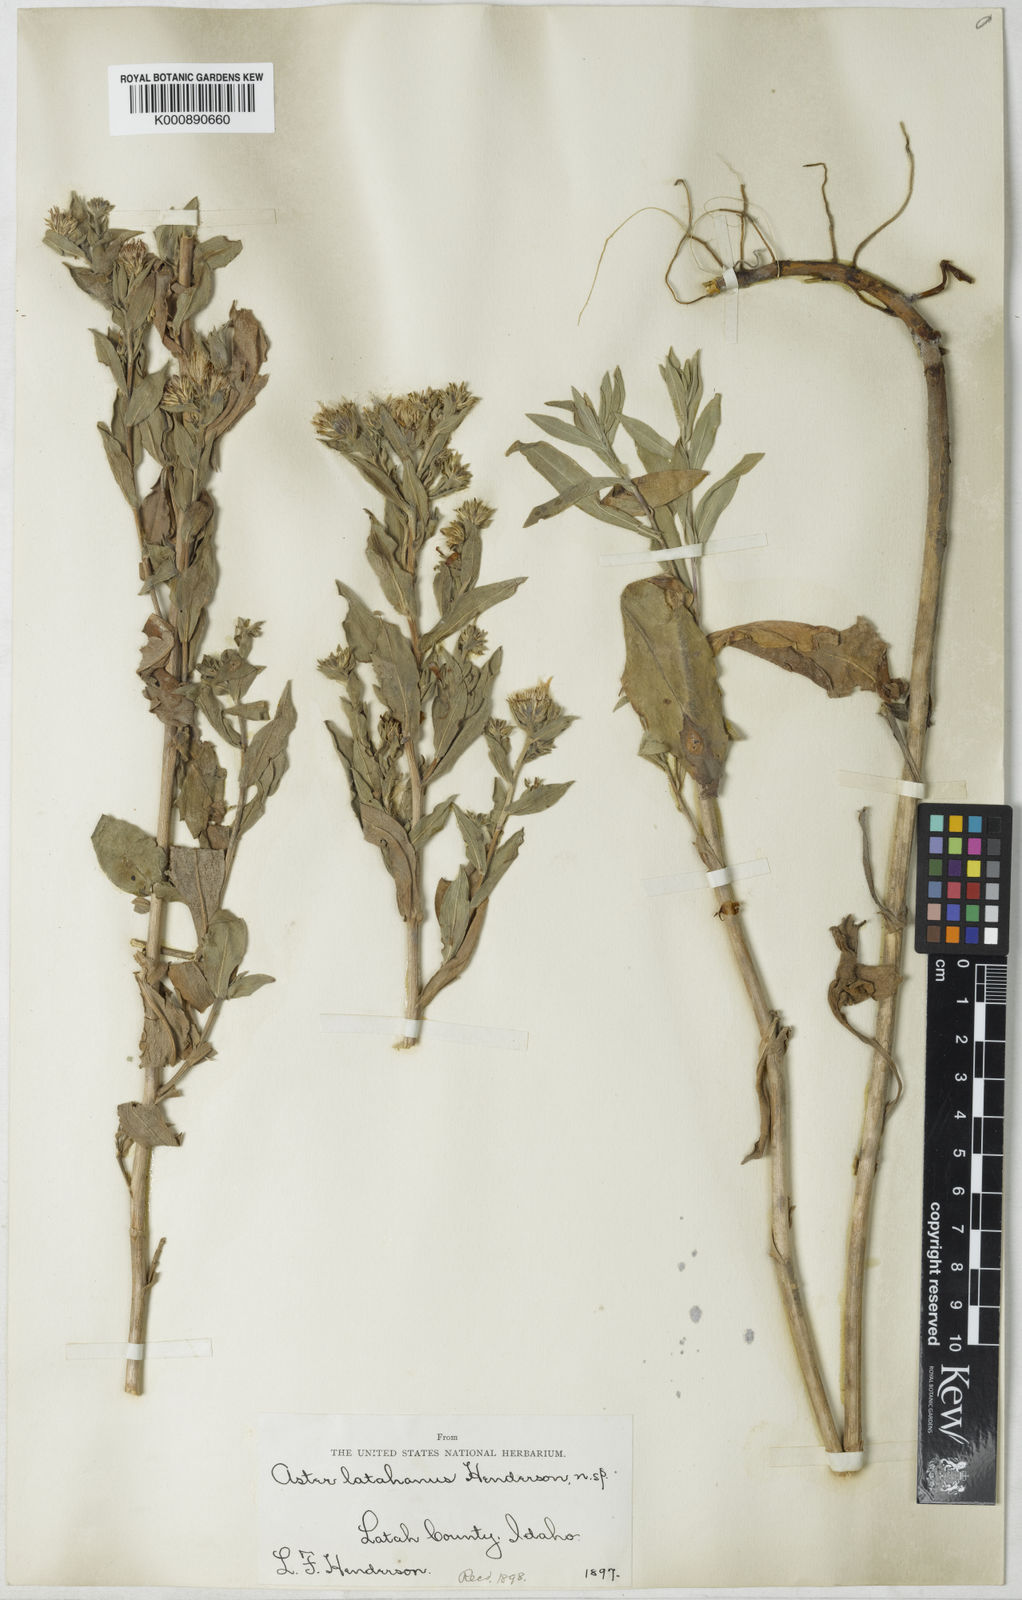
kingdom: Plantae
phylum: Tracheophyta
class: Magnoliopsida
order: Asterales
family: Asteraceae
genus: Aster
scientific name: Aster
